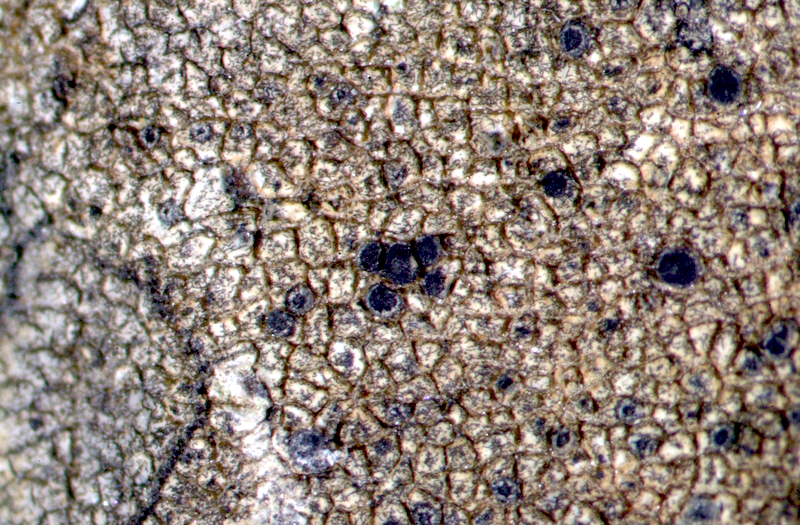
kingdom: Fungi
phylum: Ascomycota
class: Lecanoromycetes
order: Caliciales
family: Caliciaceae
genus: Buellia
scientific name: Buellia
